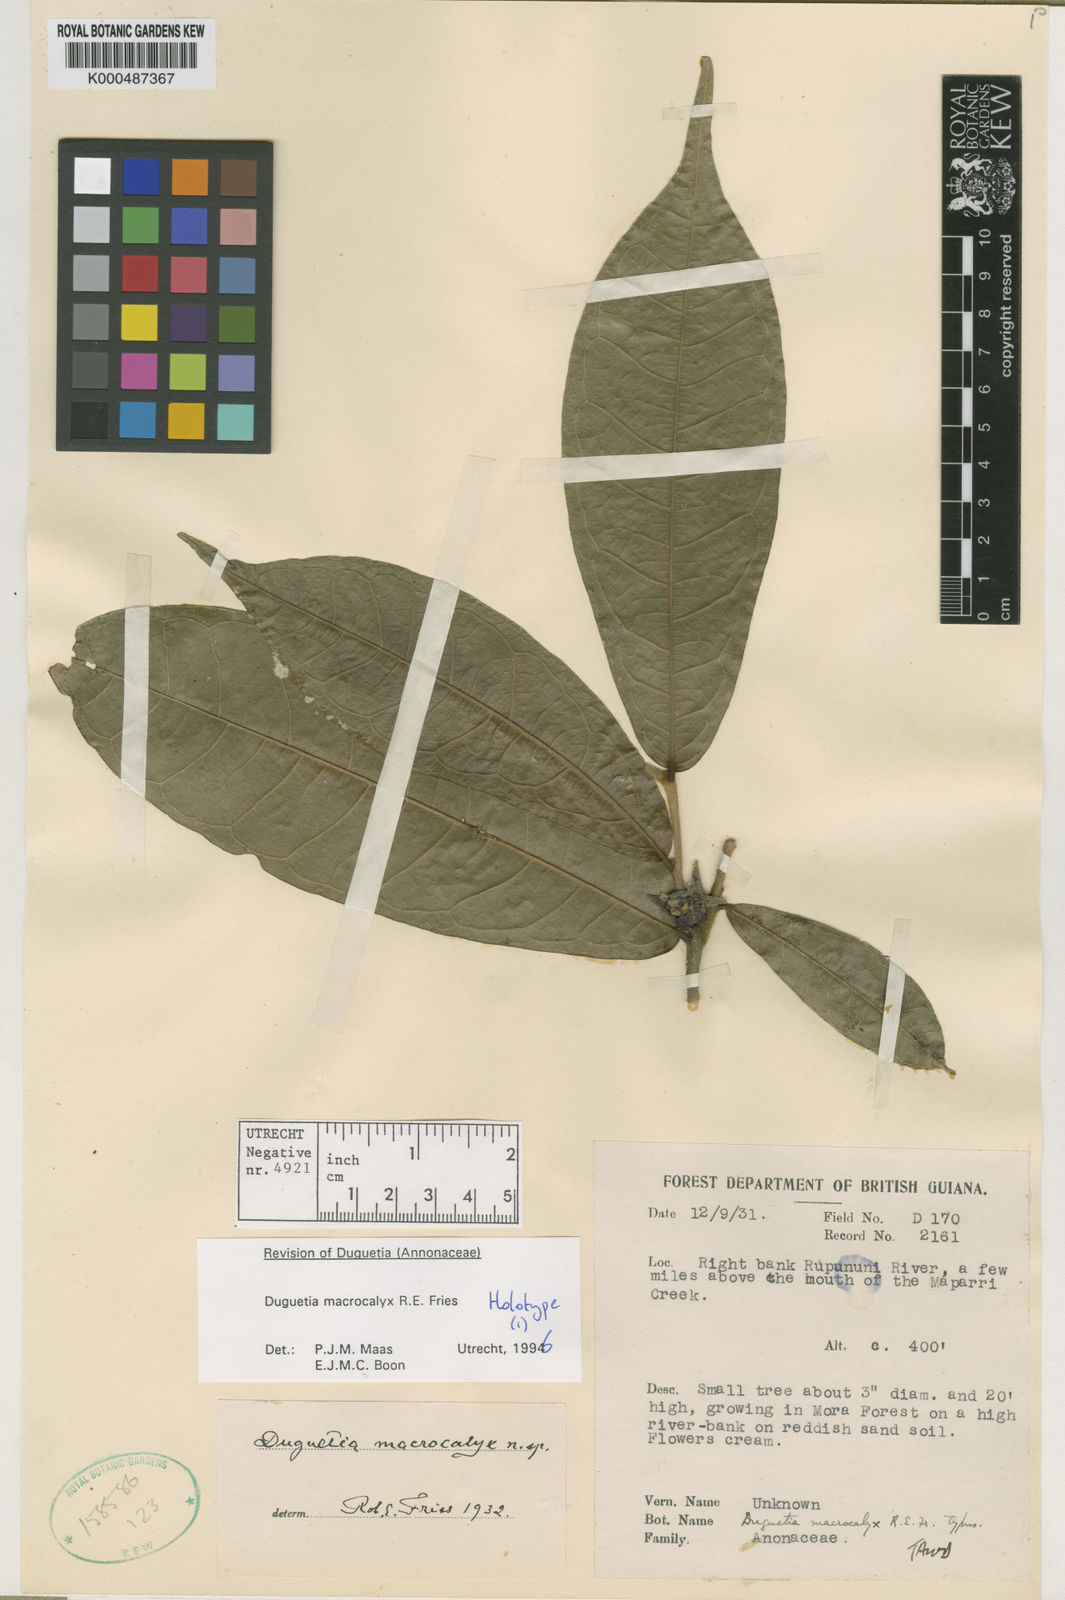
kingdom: Plantae
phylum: Tracheophyta
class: Magnoliopsida
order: Magnoliales
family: Annonaceae
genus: Duguetia
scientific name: Duguetia macrocalyx
